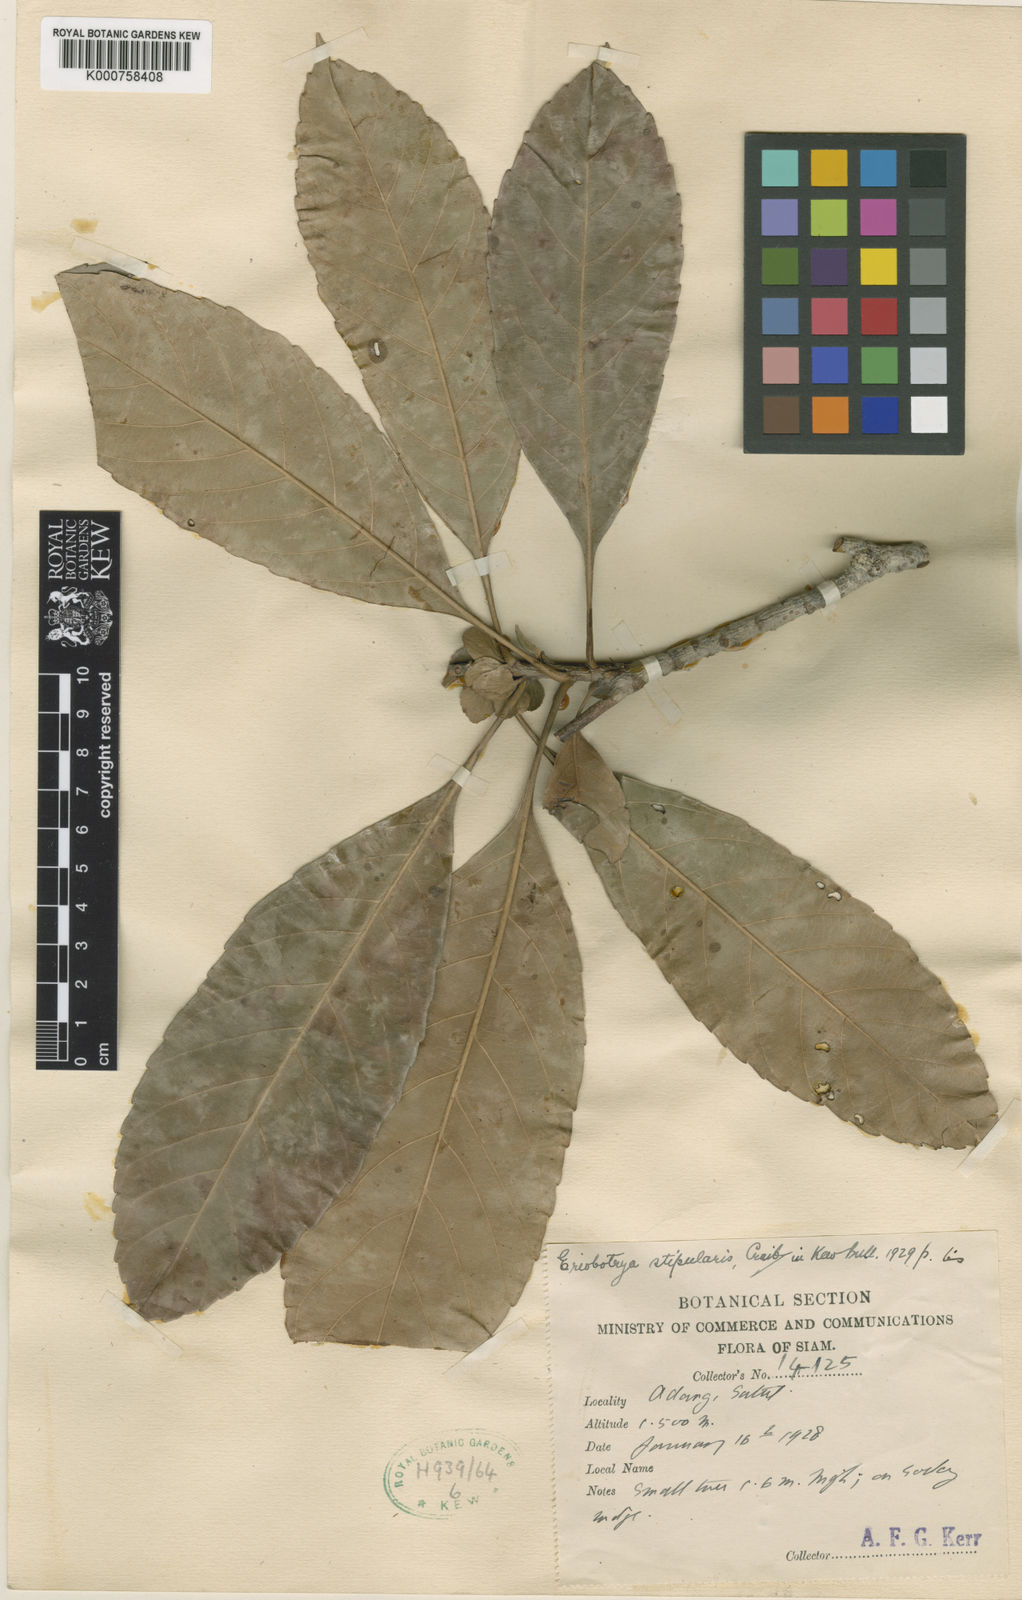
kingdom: Plantae
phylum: Tracheophyta
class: Magnoliopsida
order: Rosales
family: Rosaceae
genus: Rhaphiolepis
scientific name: Rhaphiolepis stipularis
